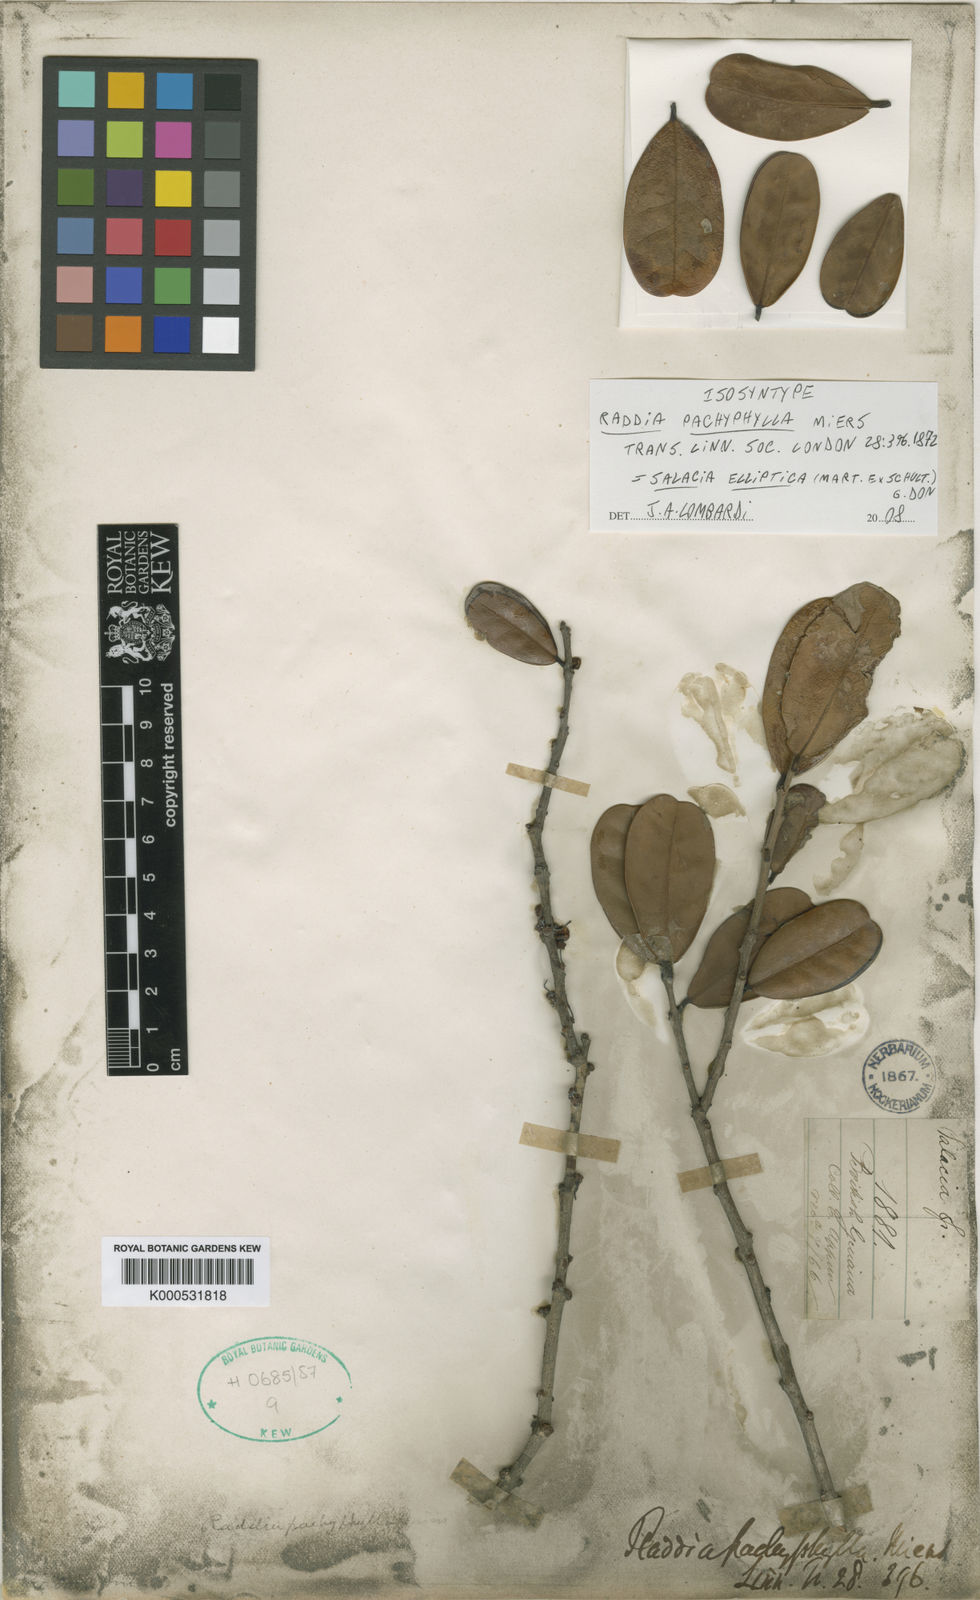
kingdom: Plantae
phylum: Tracheophyta
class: Magnoliopsida
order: Celastrales
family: Celastraceae
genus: Salacia
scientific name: Salacia elliptica
